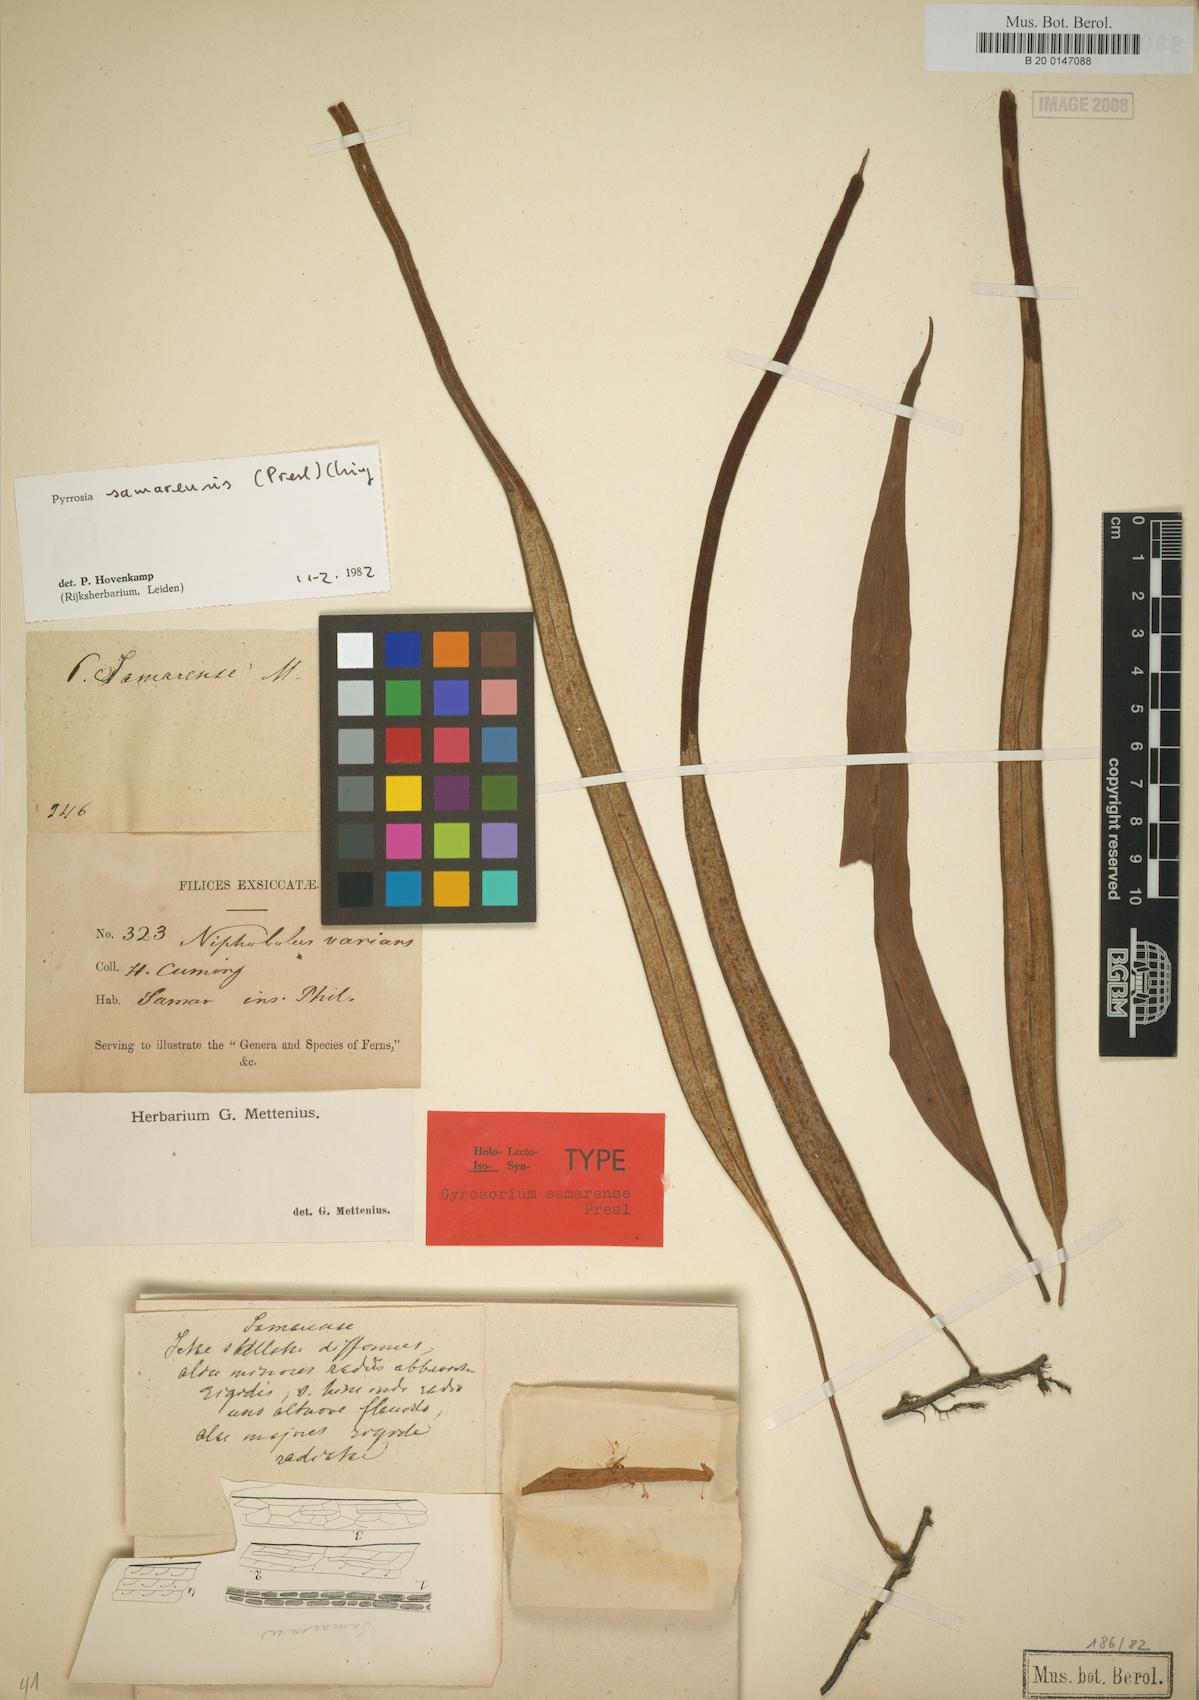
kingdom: Plantae
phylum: Tracheophyta
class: Polypodiopsida
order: Polypodiales
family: Polypodiaceae
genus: Pyrrosia
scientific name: Pyrrosia samarensis
